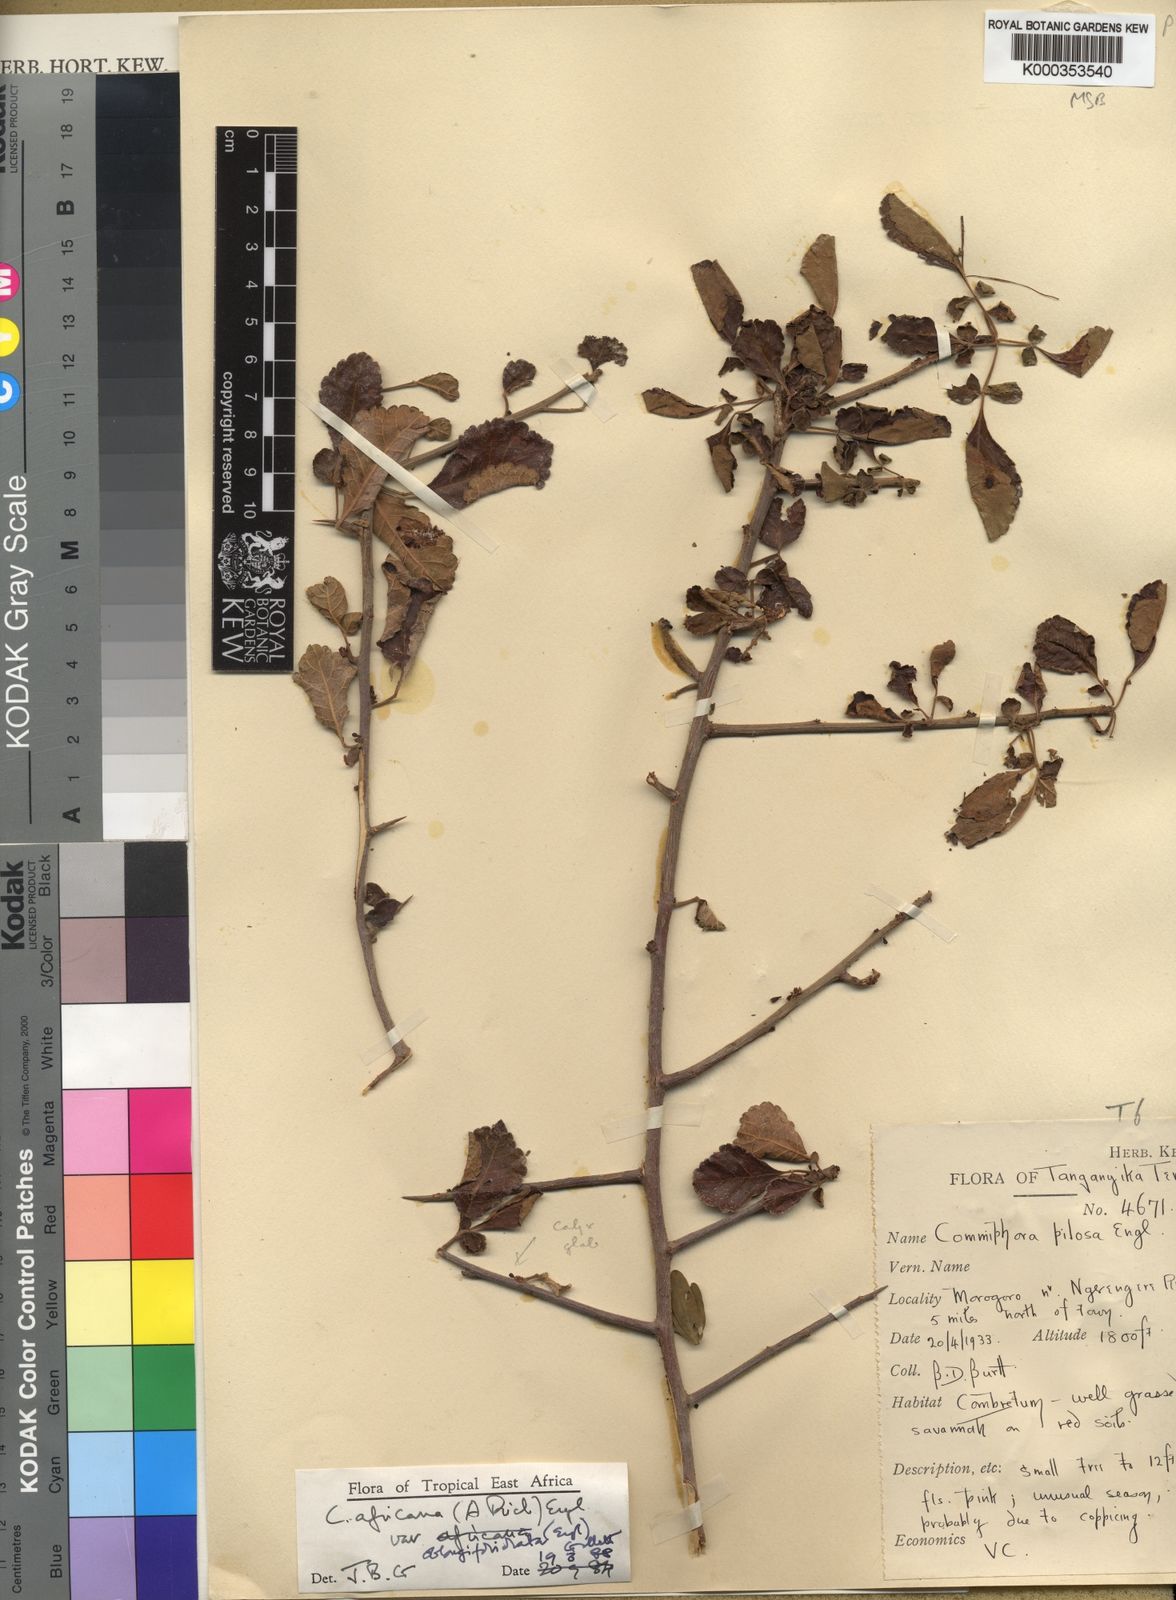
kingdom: Plantae
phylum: Tracheophyta
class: Magnoliopsida
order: Sapindales
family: Burseraceae
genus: Commiphora
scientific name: Commiphora africana
